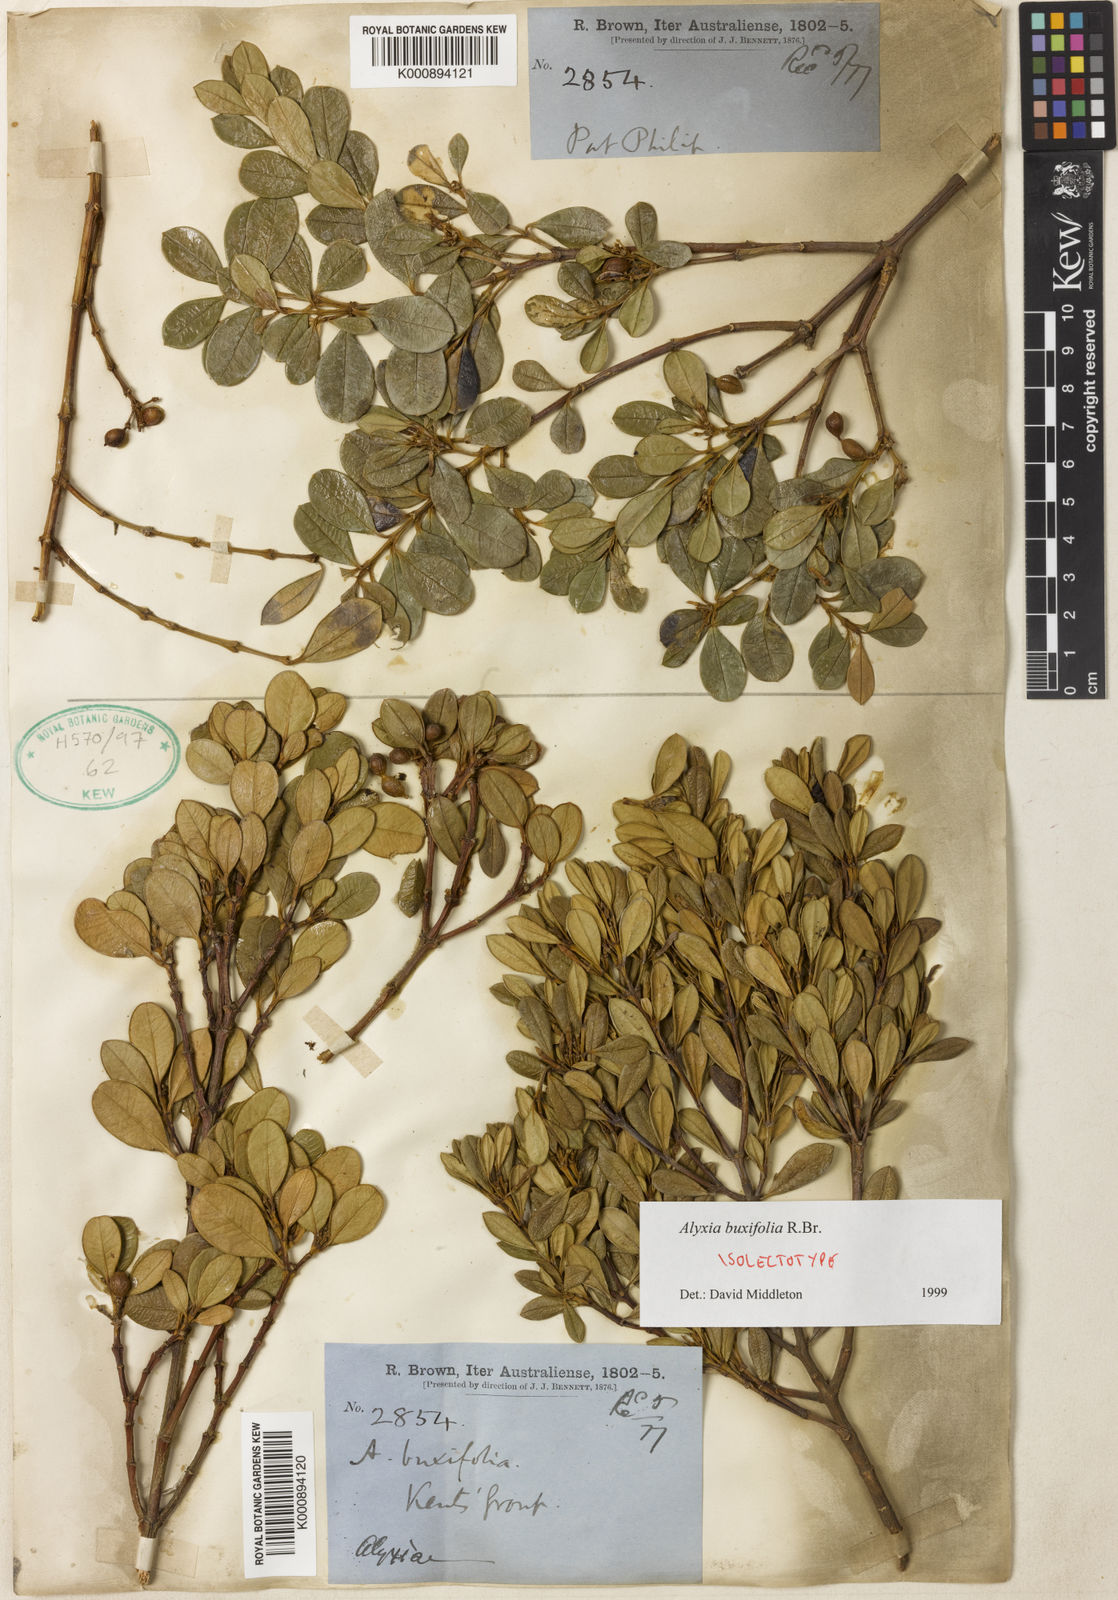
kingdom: Plantae
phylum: Tracheophyta
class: Magnoliopsida
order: Gentianales
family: Apocynaceae
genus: Alyxia
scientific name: Alyxia buxifolia
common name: Dysentery-bush
